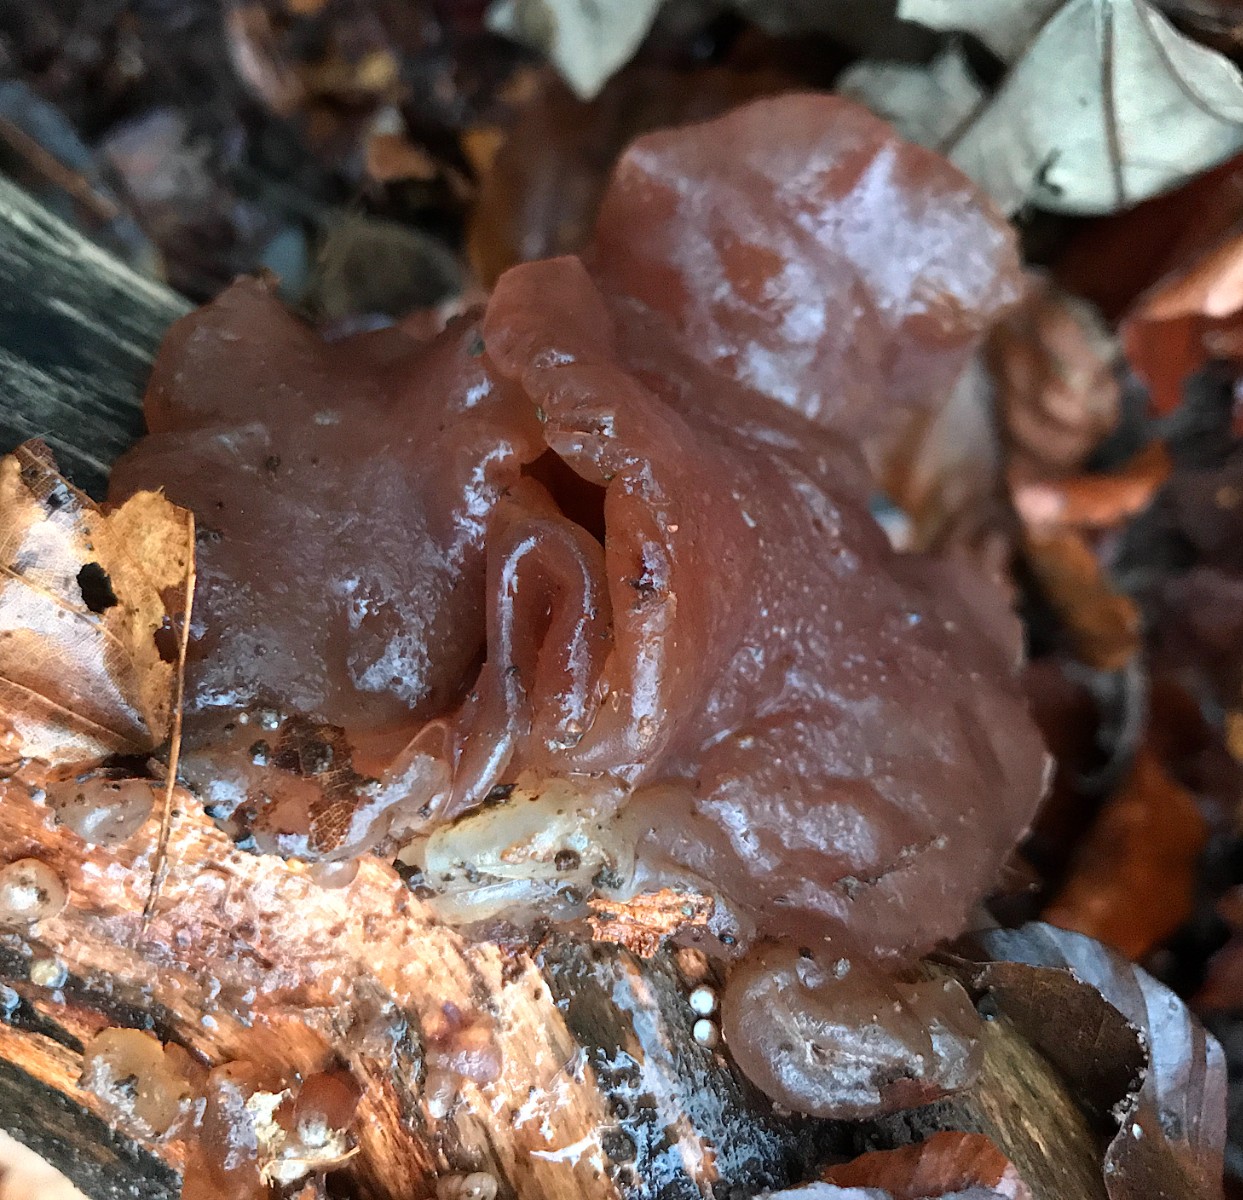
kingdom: Fungi
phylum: Basidiomycota
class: Agaricomycetes
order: Auriculariales
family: Auriculariaceae
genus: Auricularia
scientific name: Auricularia auricula-judae
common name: almindelig judasøre
